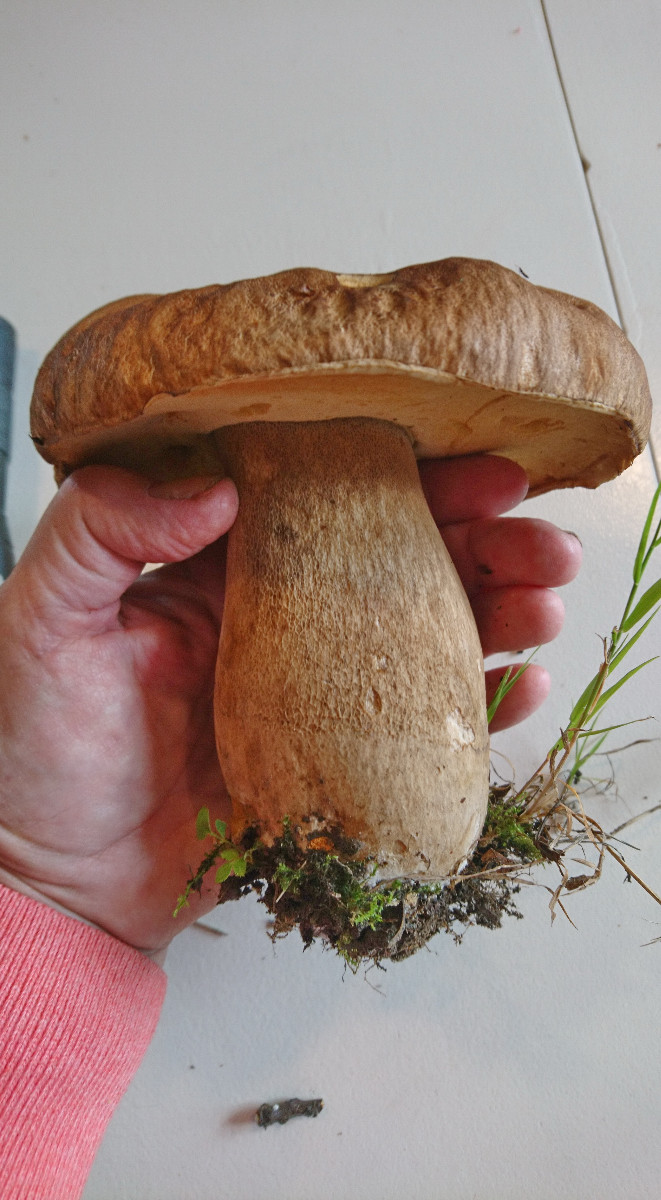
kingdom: Fungi
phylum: Basidiomycota
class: Agaricomycetes
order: Boletales
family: Boletaceae
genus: Boletus
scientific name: Boletus
